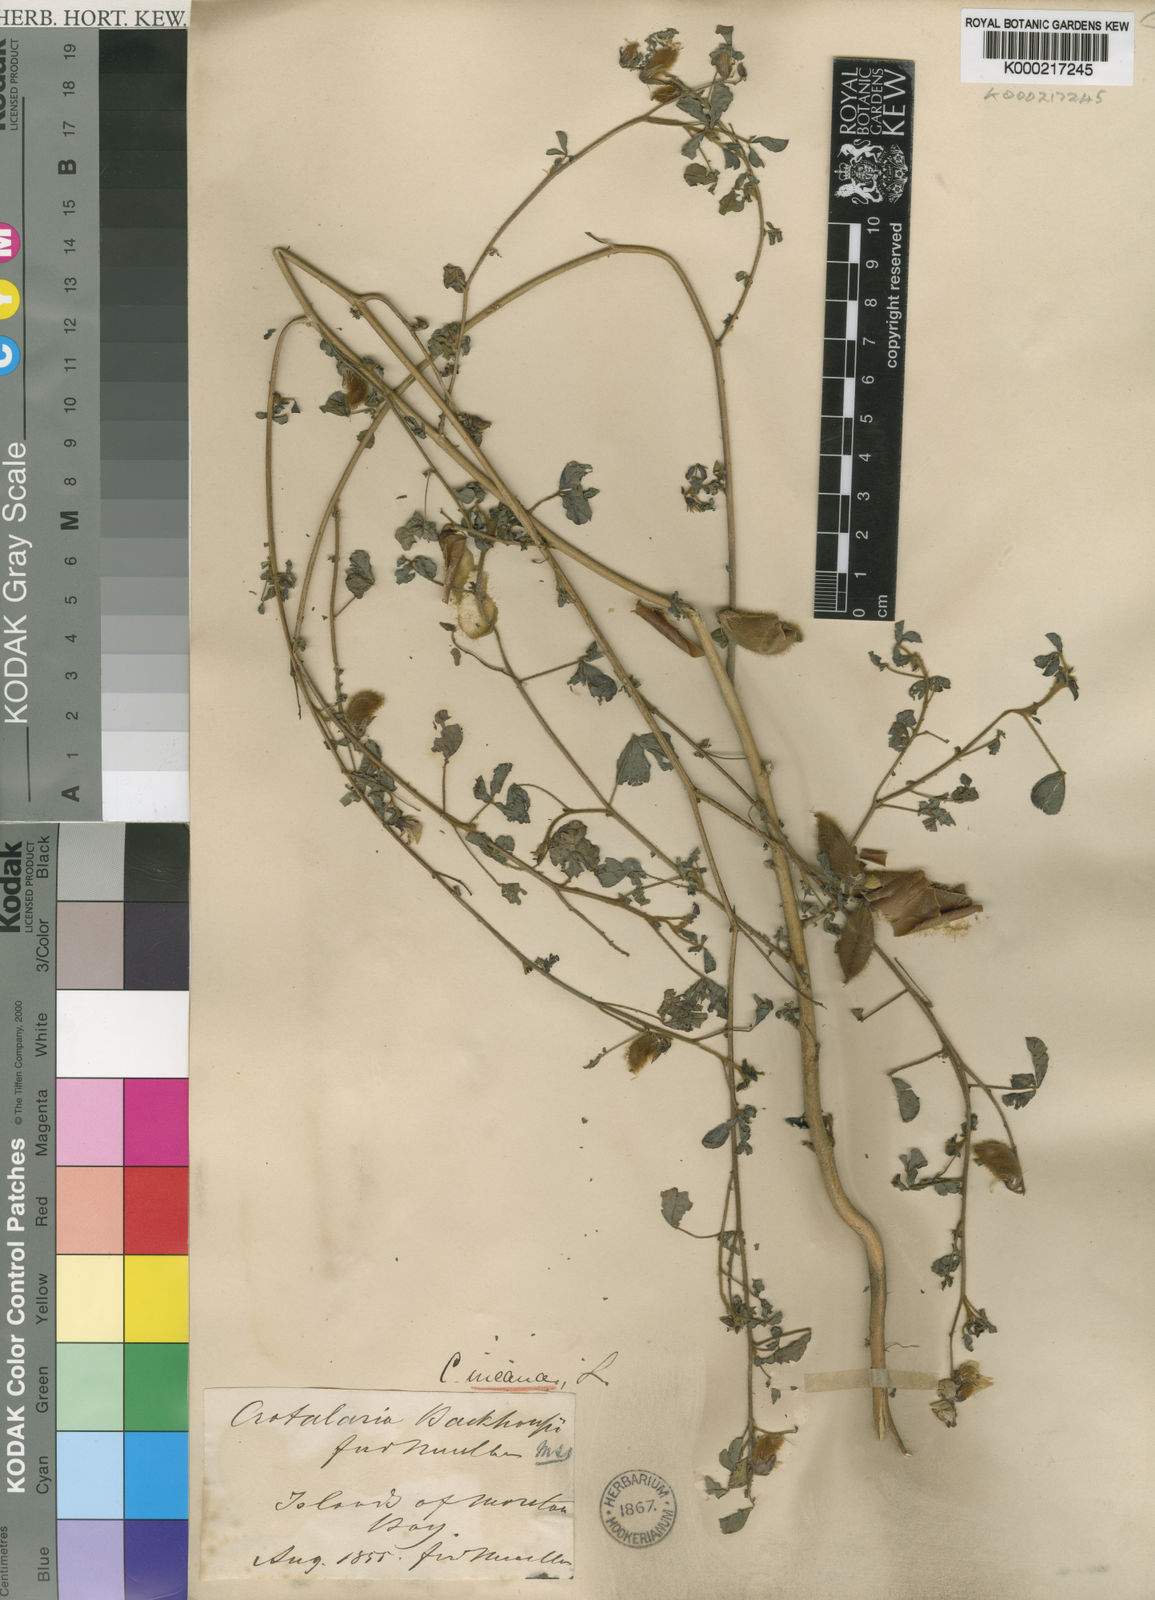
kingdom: Plantae
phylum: Tracheophyta
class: Magnoliopsida
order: Fabales
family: Fabaceae
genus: Crotalaria
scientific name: Crotalaria incana
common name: Shakeshake
